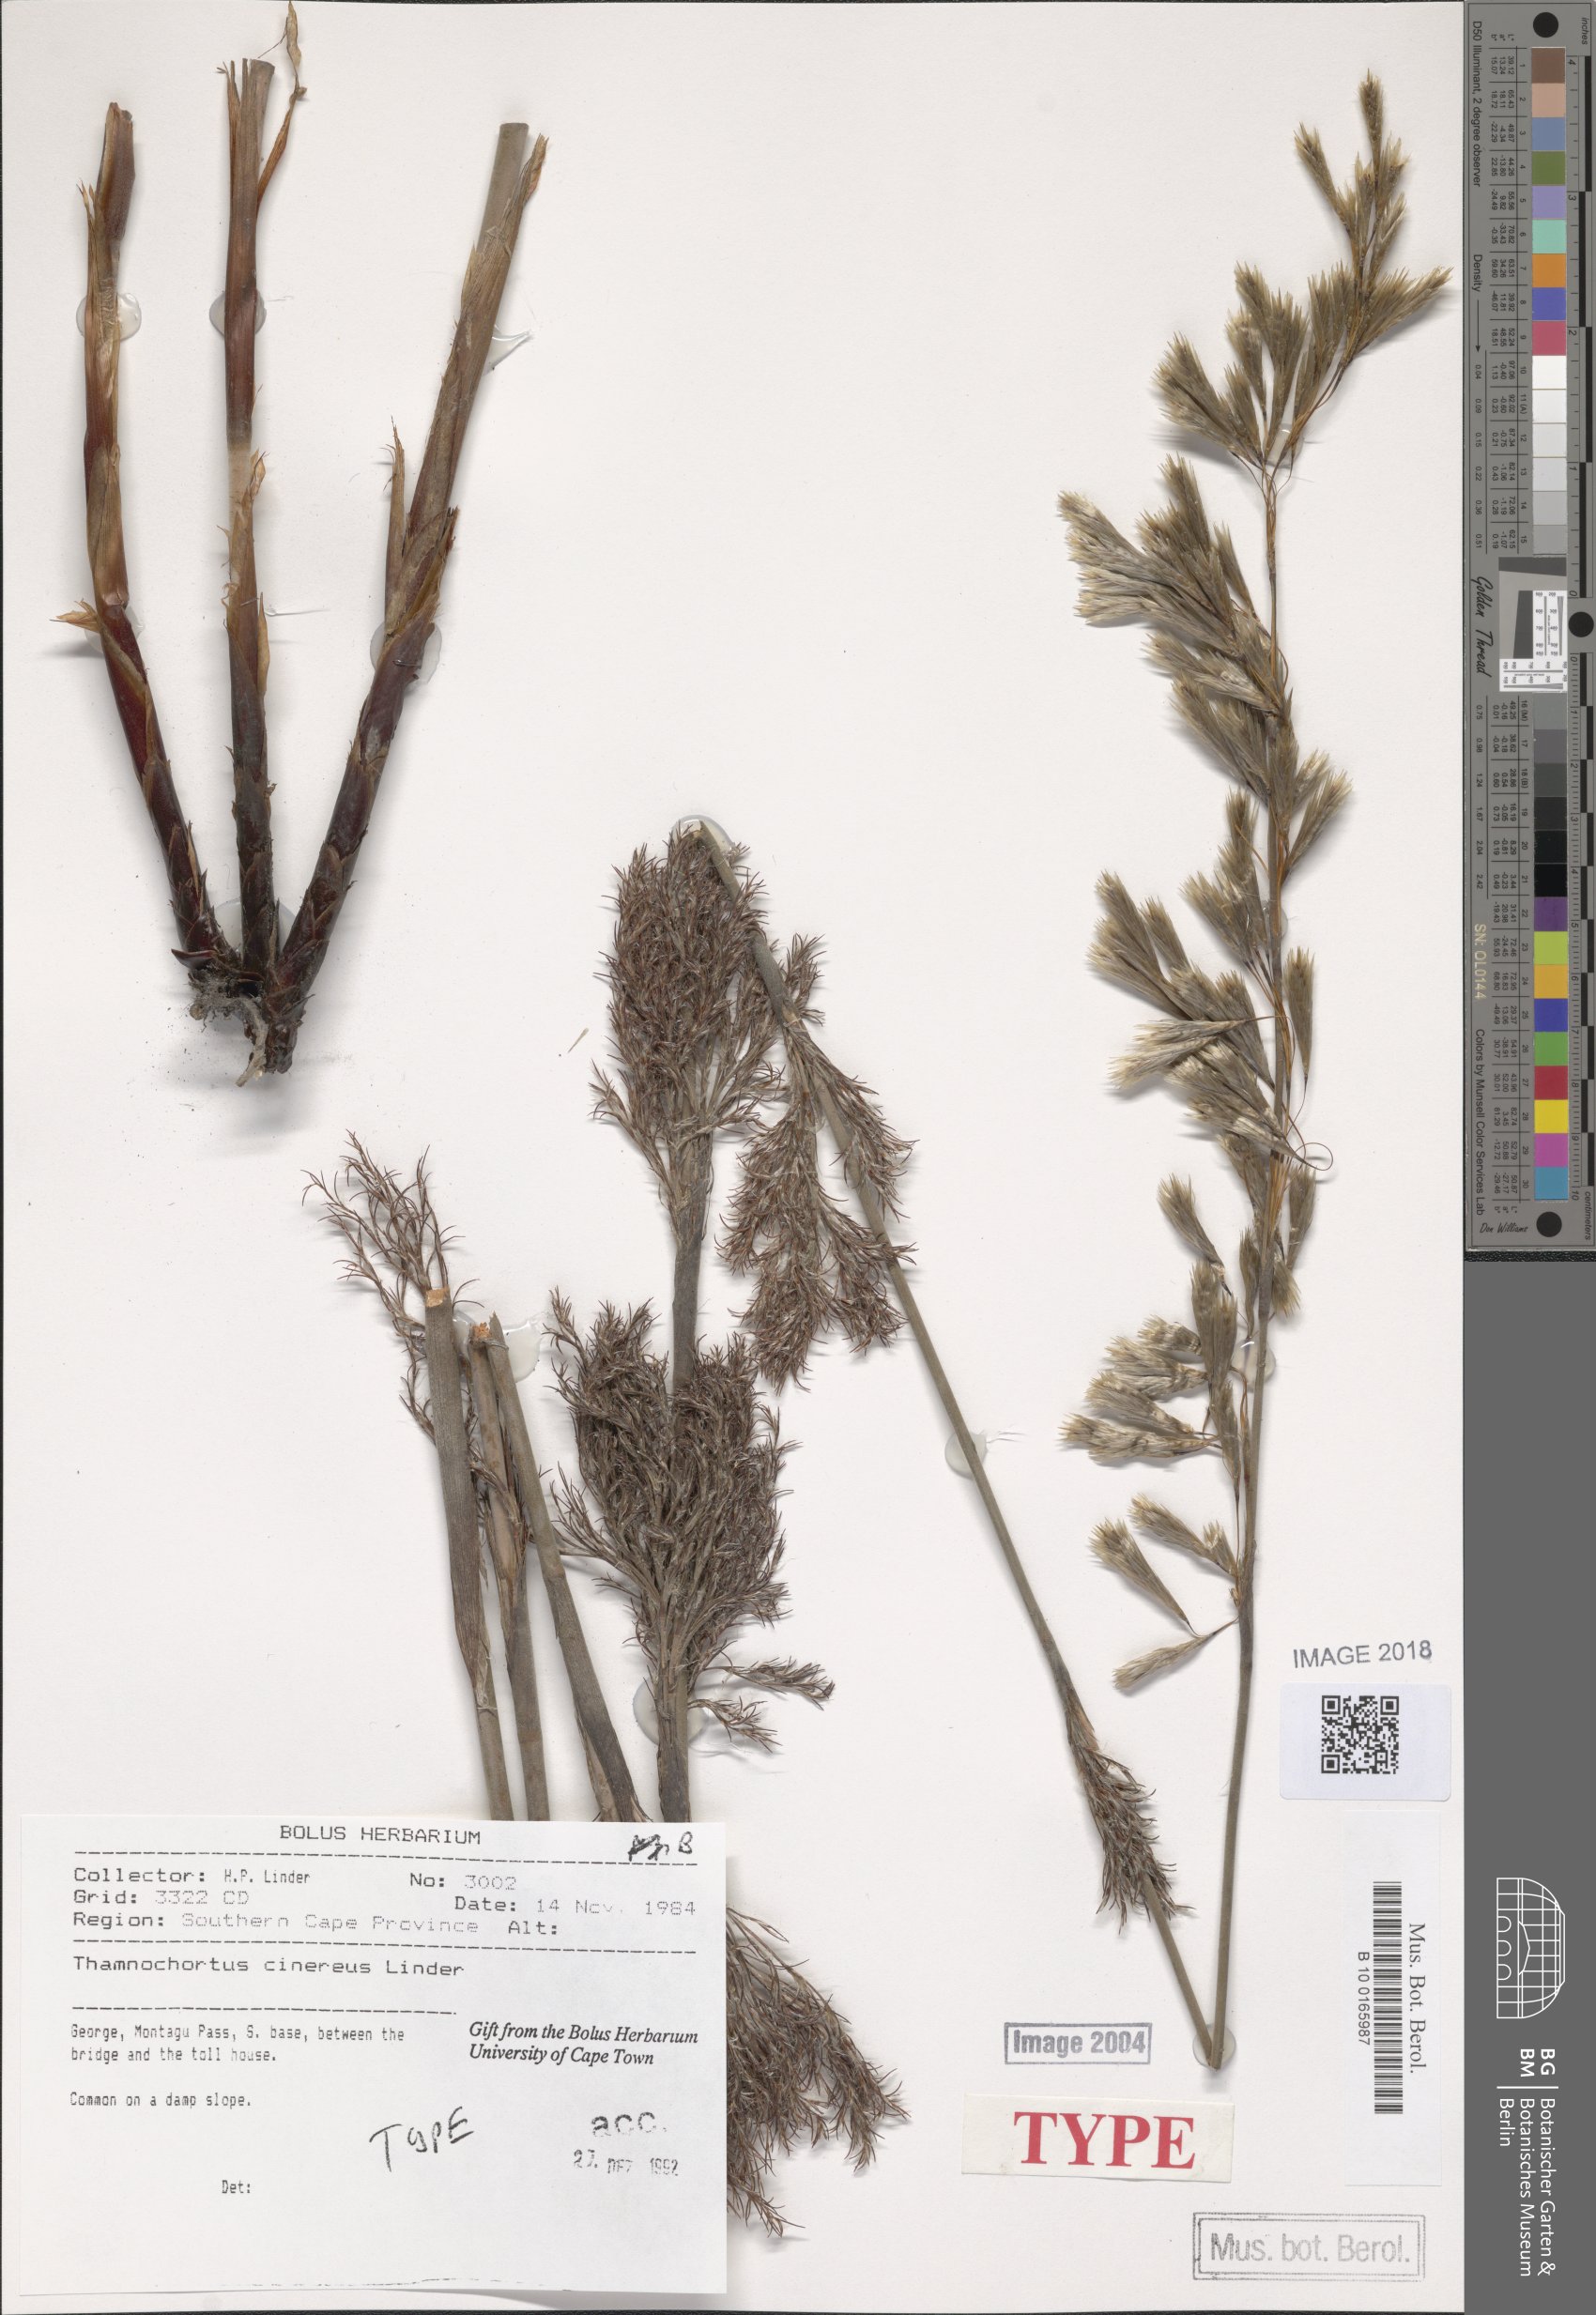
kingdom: Plantae
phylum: Tracheophyta
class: Liliopsida
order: Poales
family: Restionaceae
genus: Thamnochortus
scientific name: Thamnochortus cinereus
